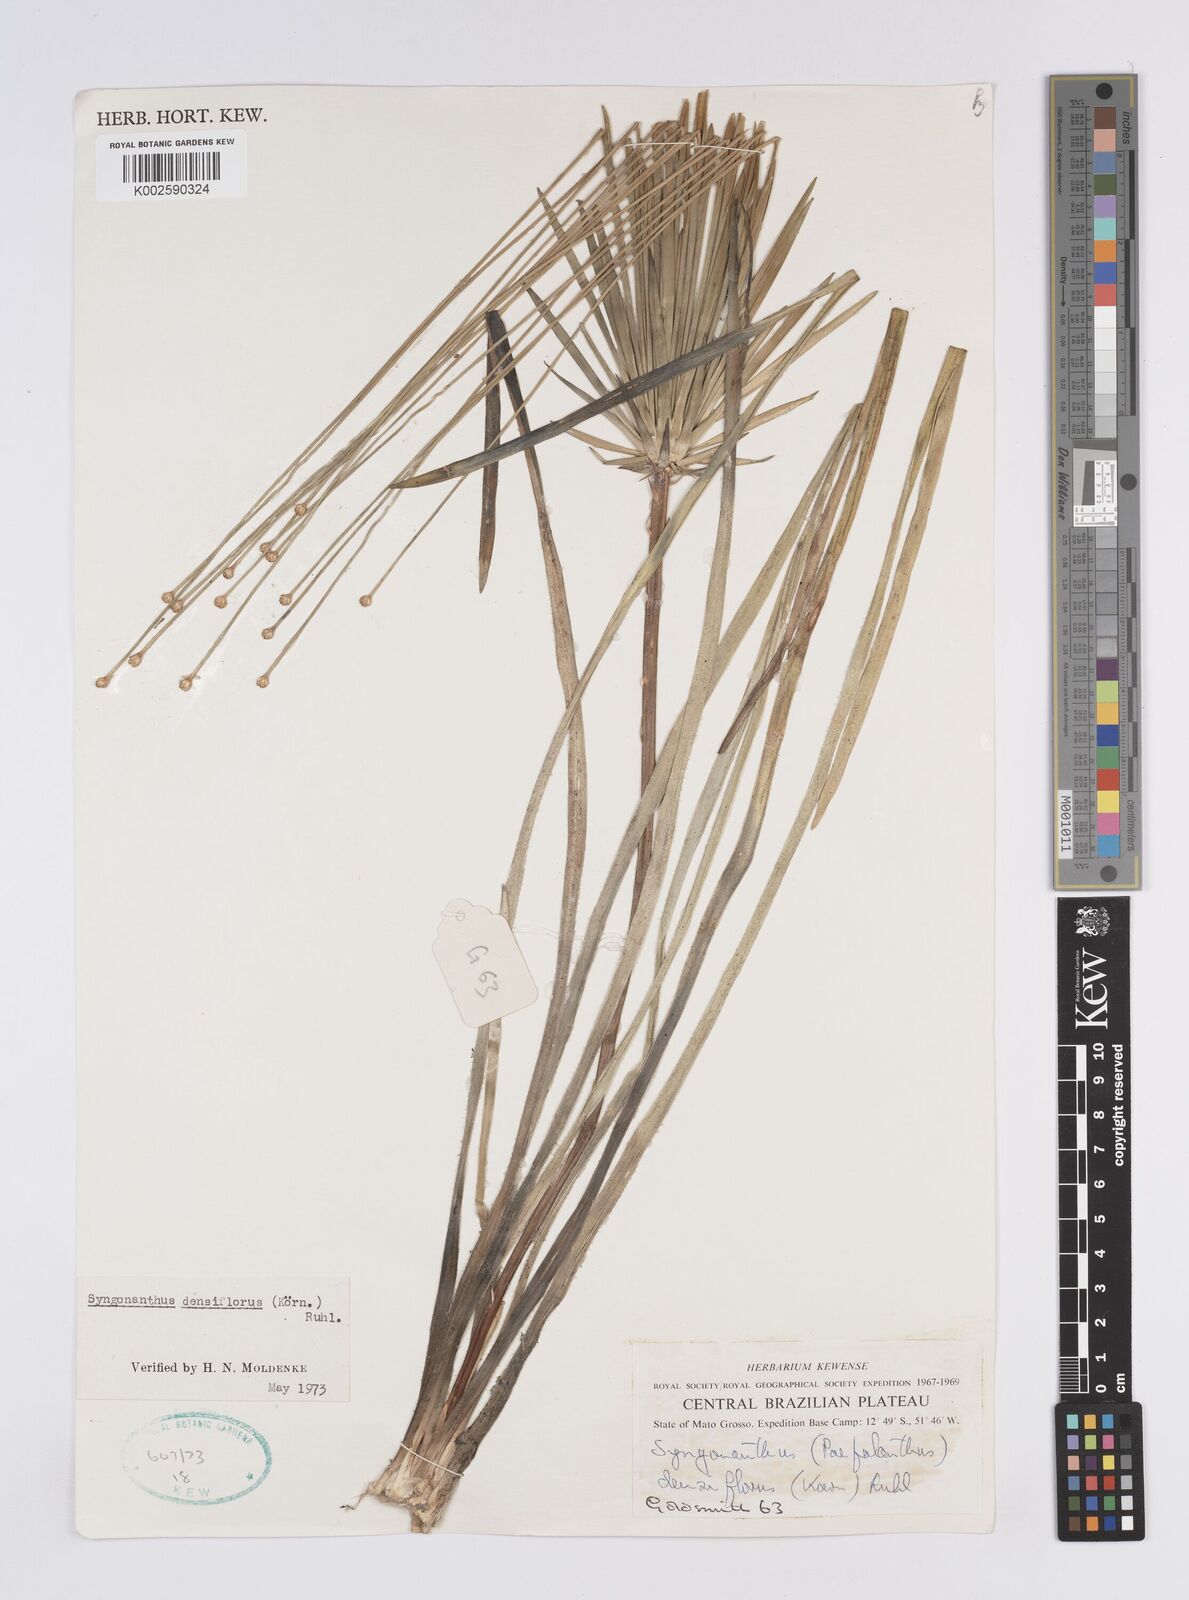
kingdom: Plantae
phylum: Tracheophyta
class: Liliopsida
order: Poales
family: Eriocaulaceae
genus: Syngonanthus
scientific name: Syngonanthus densiflorus
